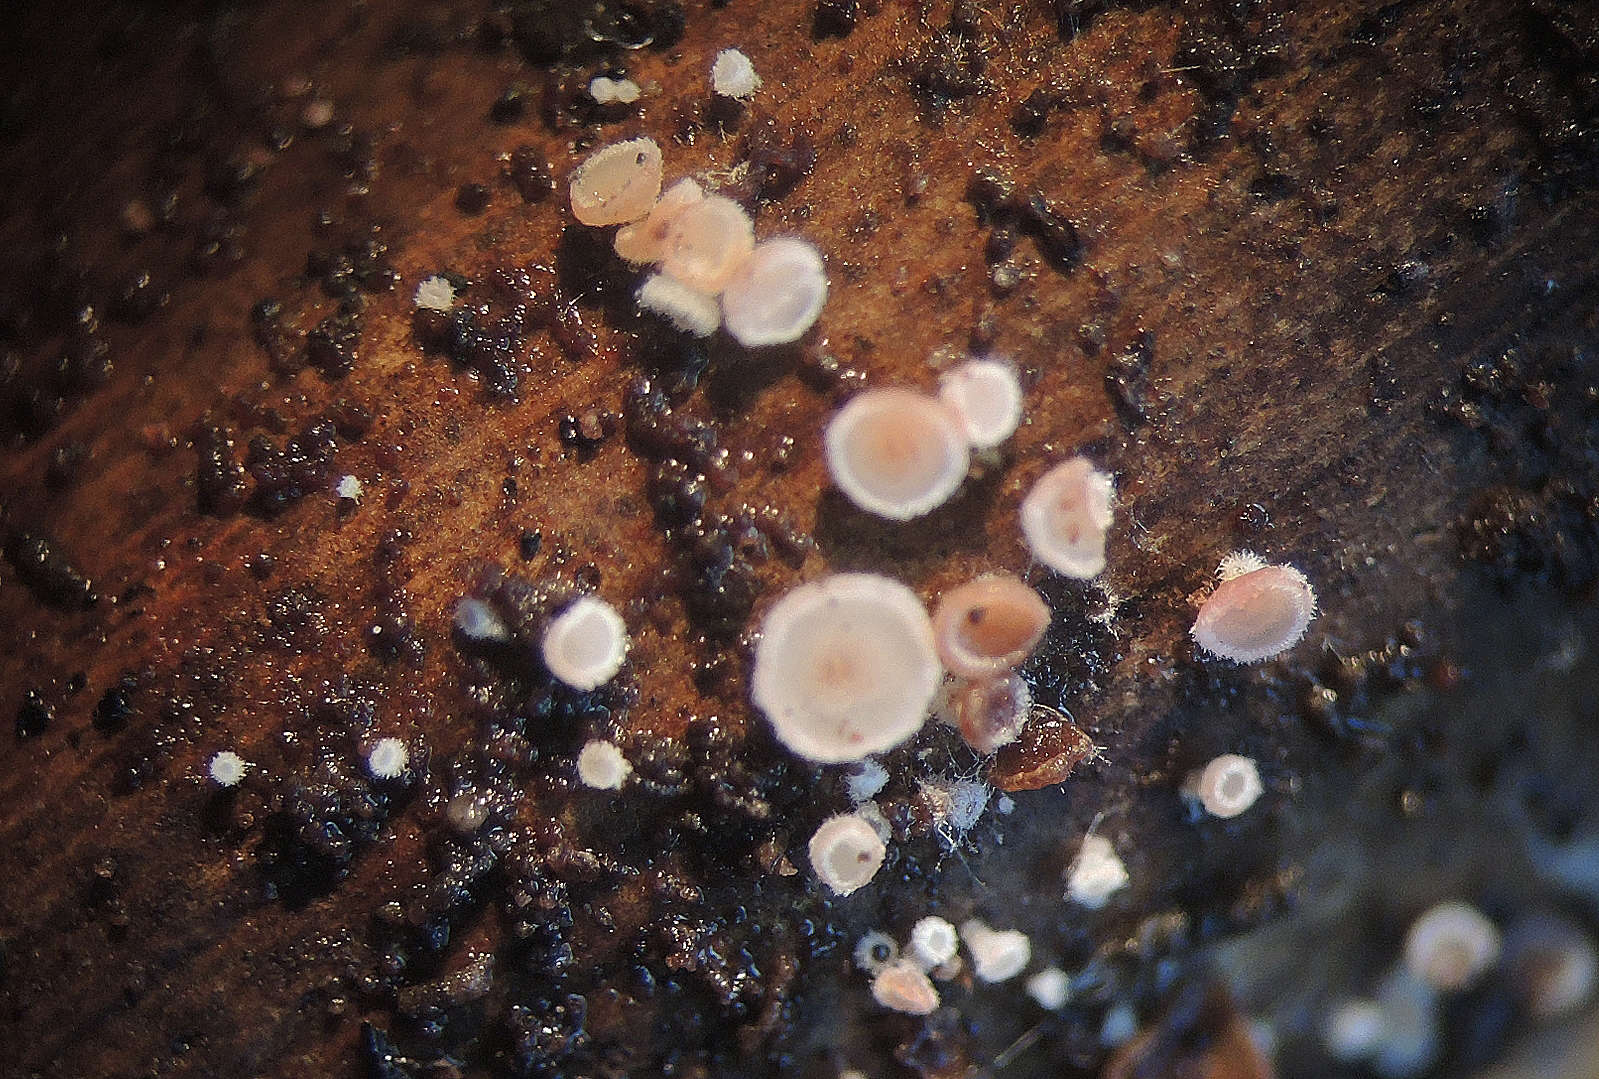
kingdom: Fungi
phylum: Ascomycota
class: Leotiomycetes
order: Helotiales
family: Lachnaceae
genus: Lachnum
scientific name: Lachnum carneolum
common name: kødfarvet frynseskive
